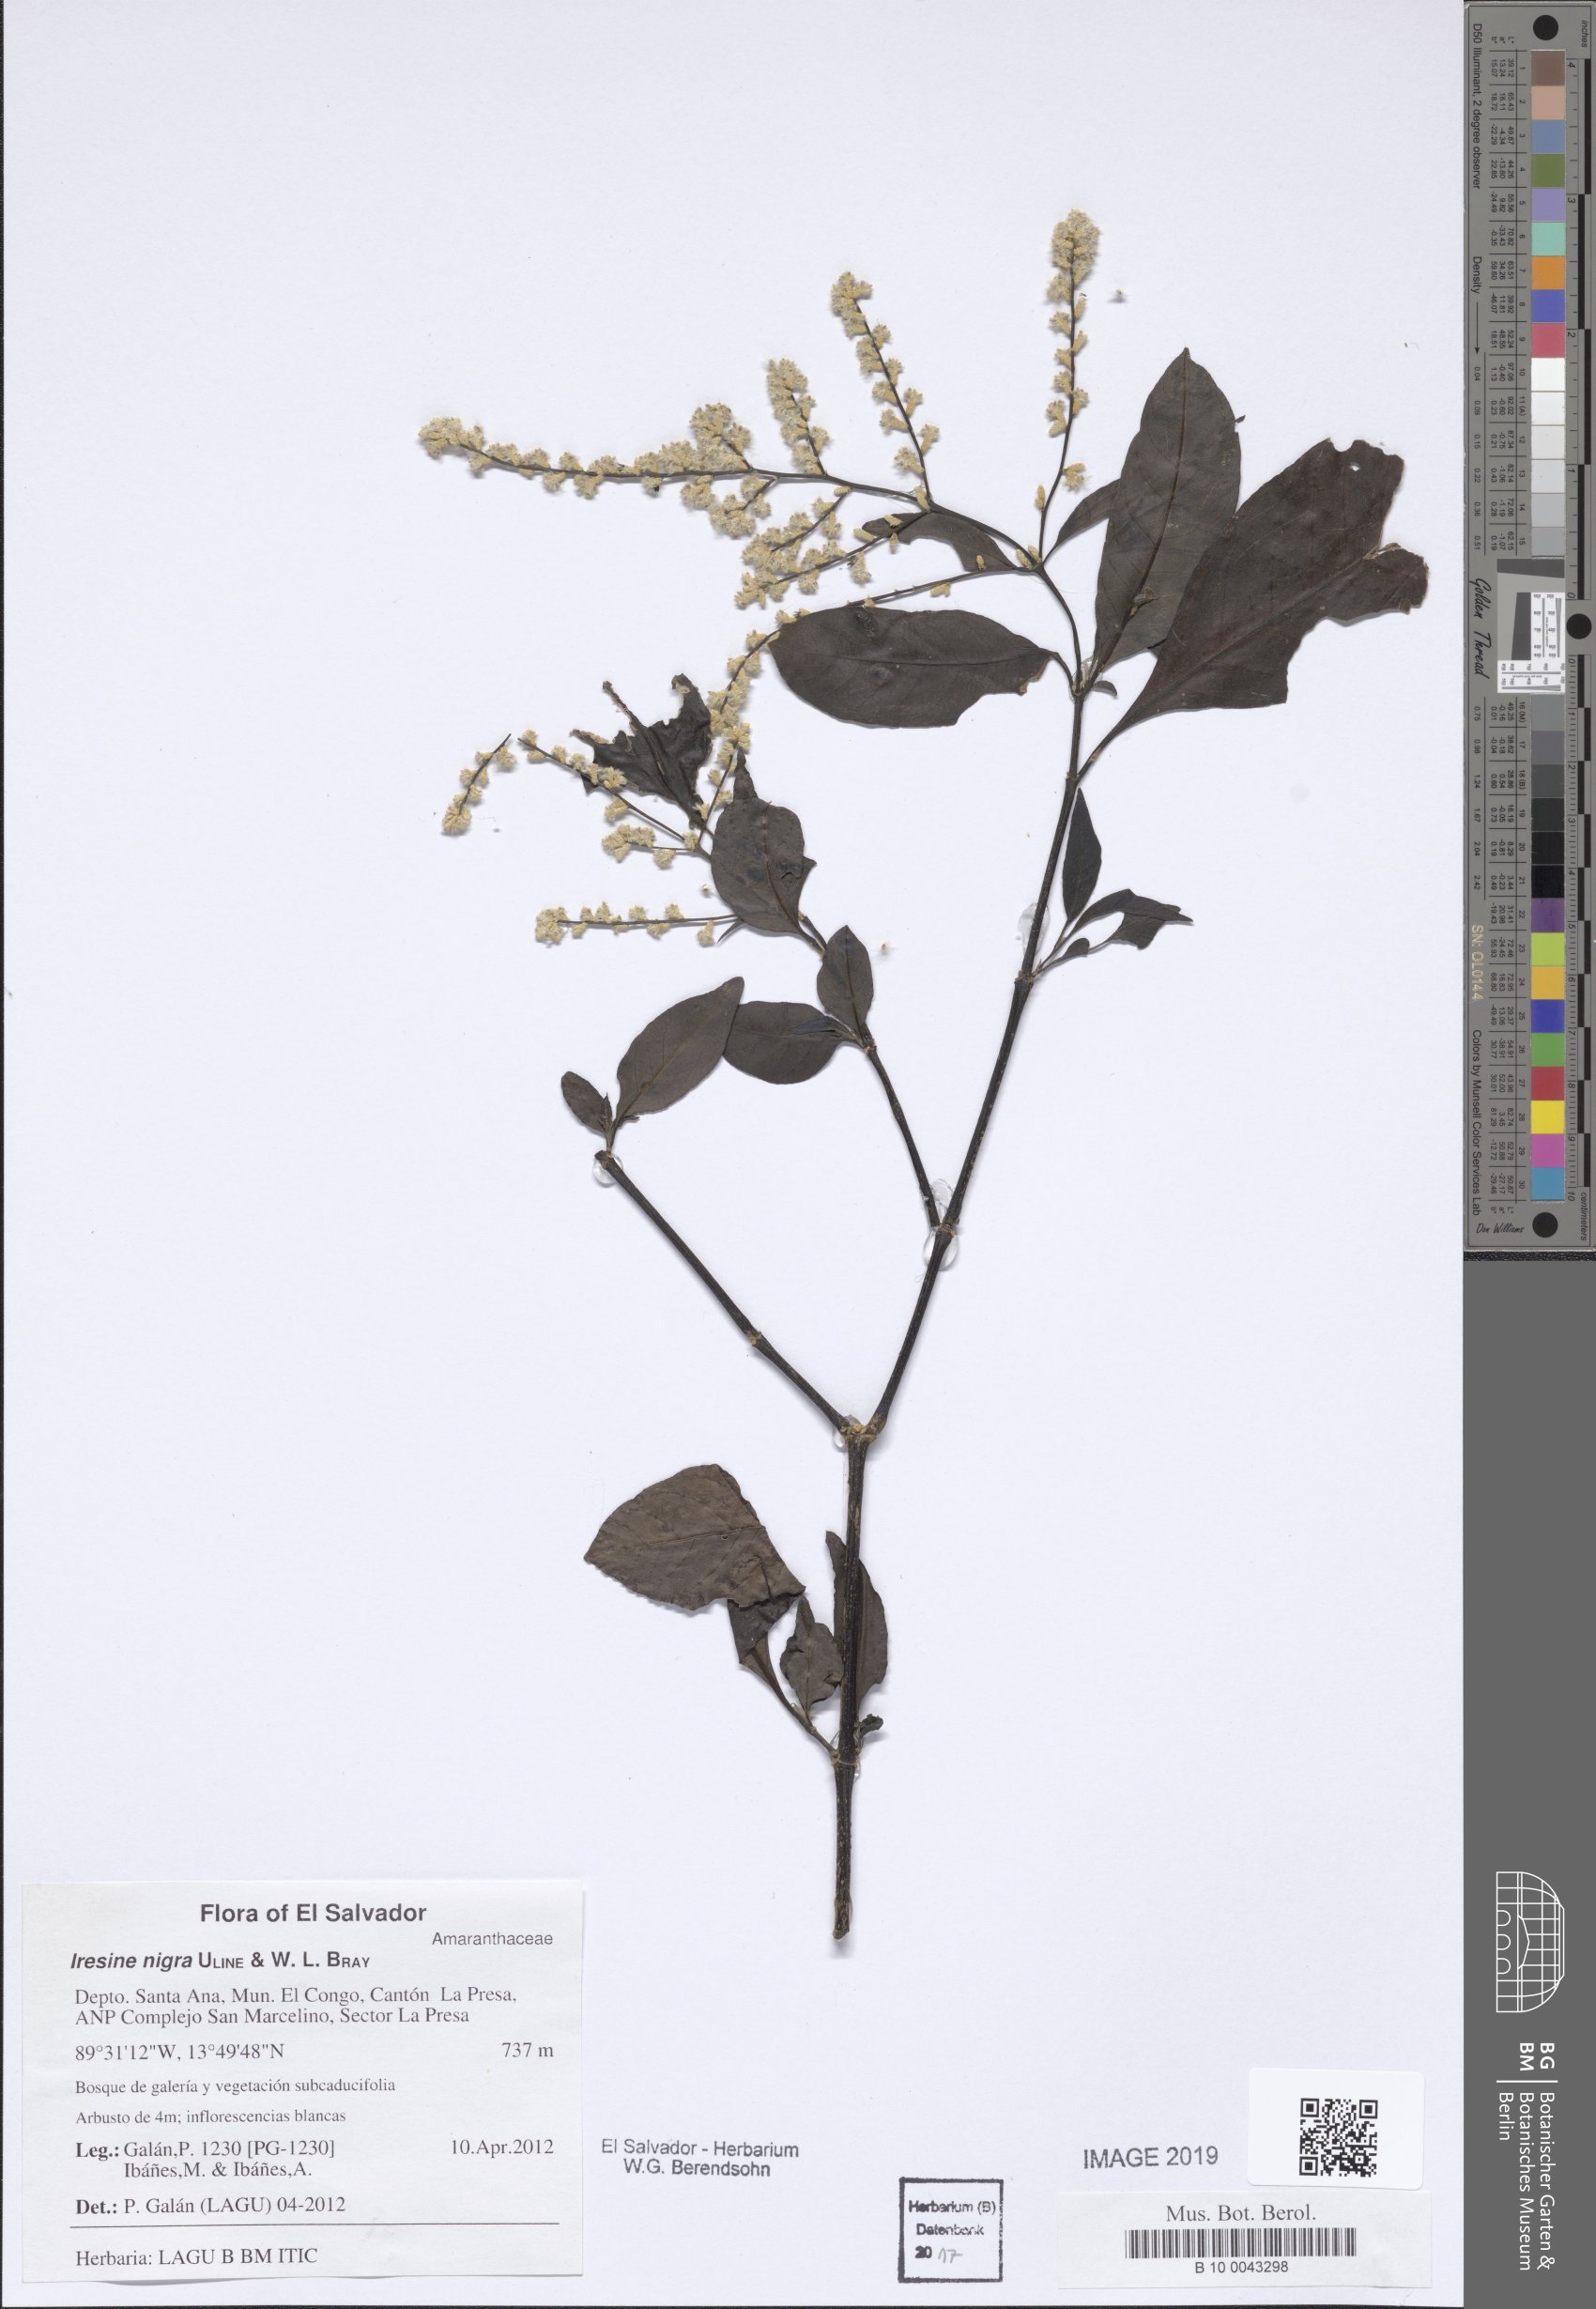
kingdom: Plantae
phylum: Tracheophyta
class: Magnoliopsida
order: Caryophyllales
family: Amaranthaceae
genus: Iresine
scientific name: Iresine nigra
